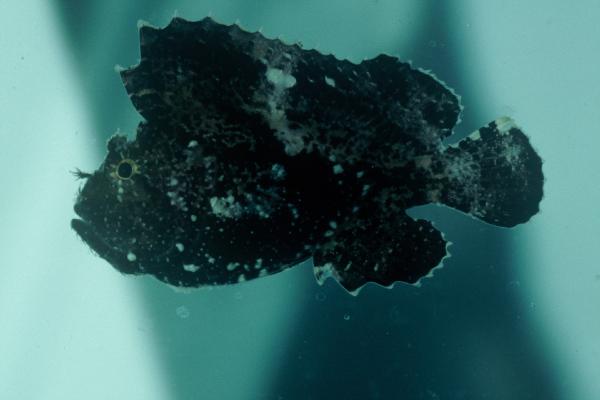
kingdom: Animalia
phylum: Chordata
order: Scorpaeniformes
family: Scorpaenidae
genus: Taenianotus
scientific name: Taenianotus triacanthus
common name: Leaf scorpionfish
